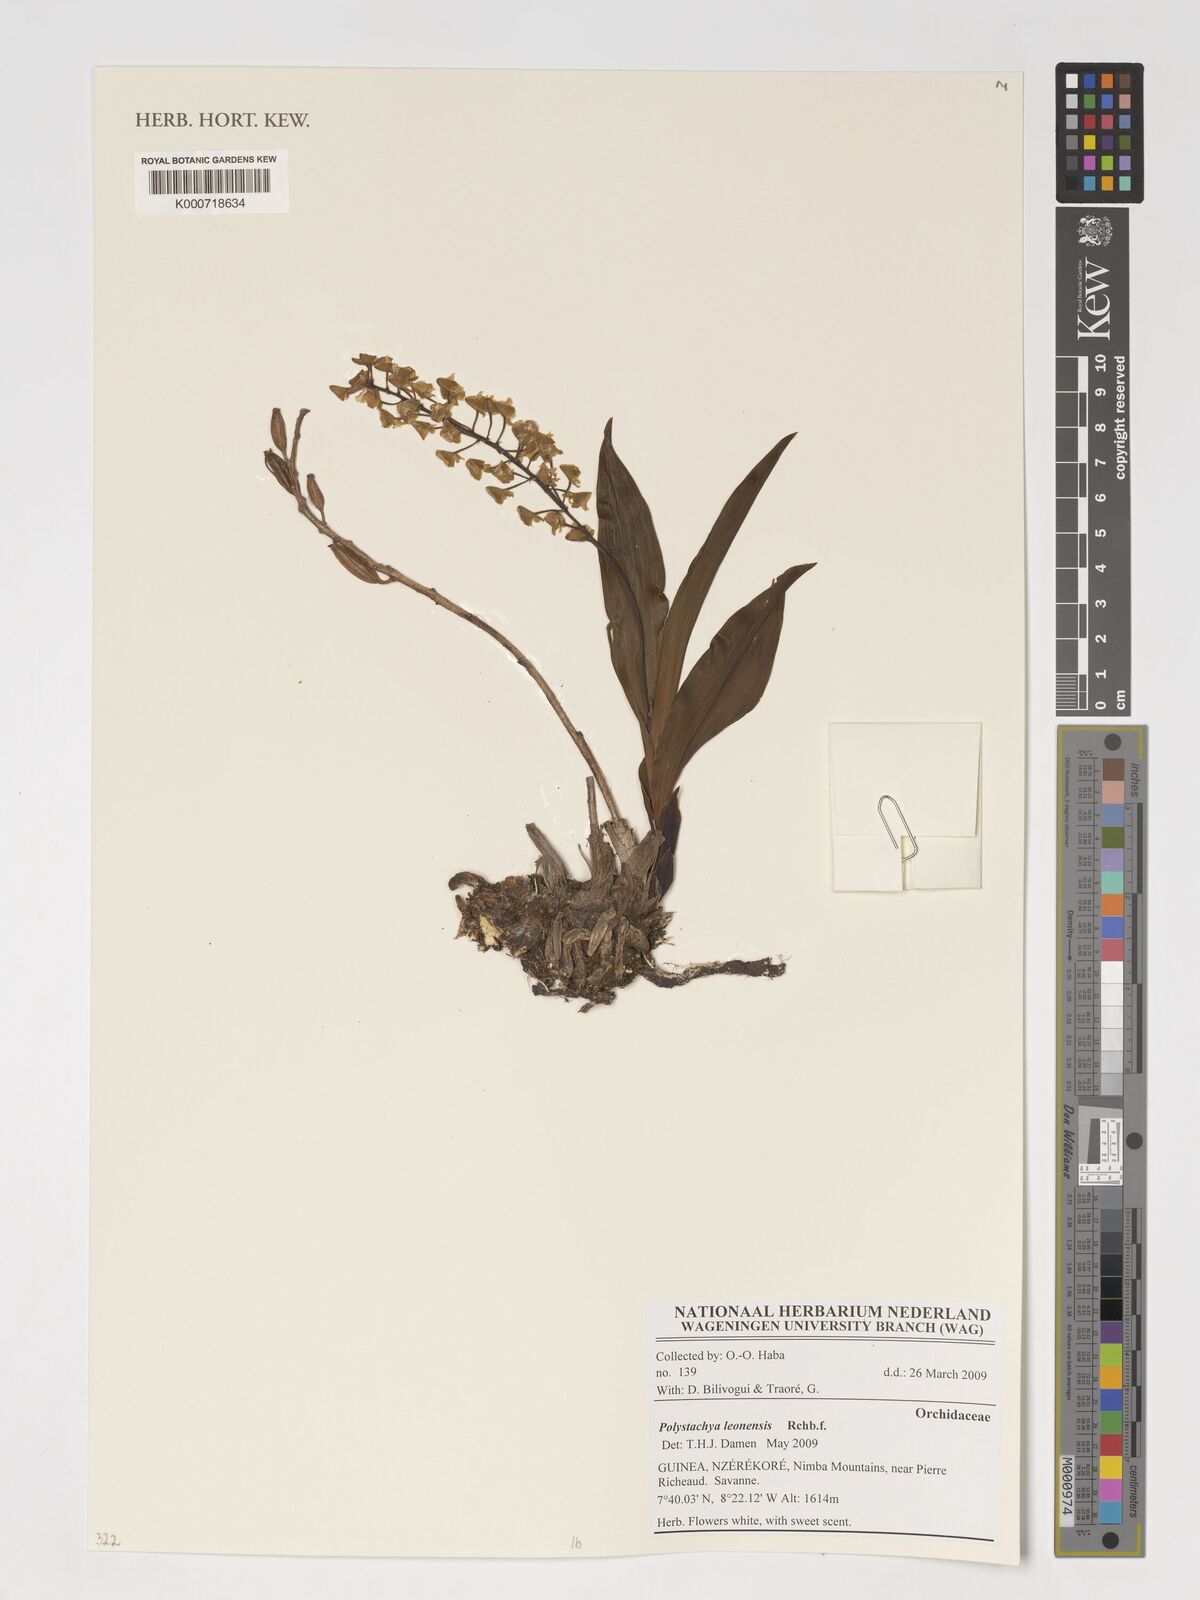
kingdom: Plantae
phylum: Tracheophyta
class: Liliopsida
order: Asparagales
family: Orchidaceae
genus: Polystachya
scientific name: Polystachya leonensis
